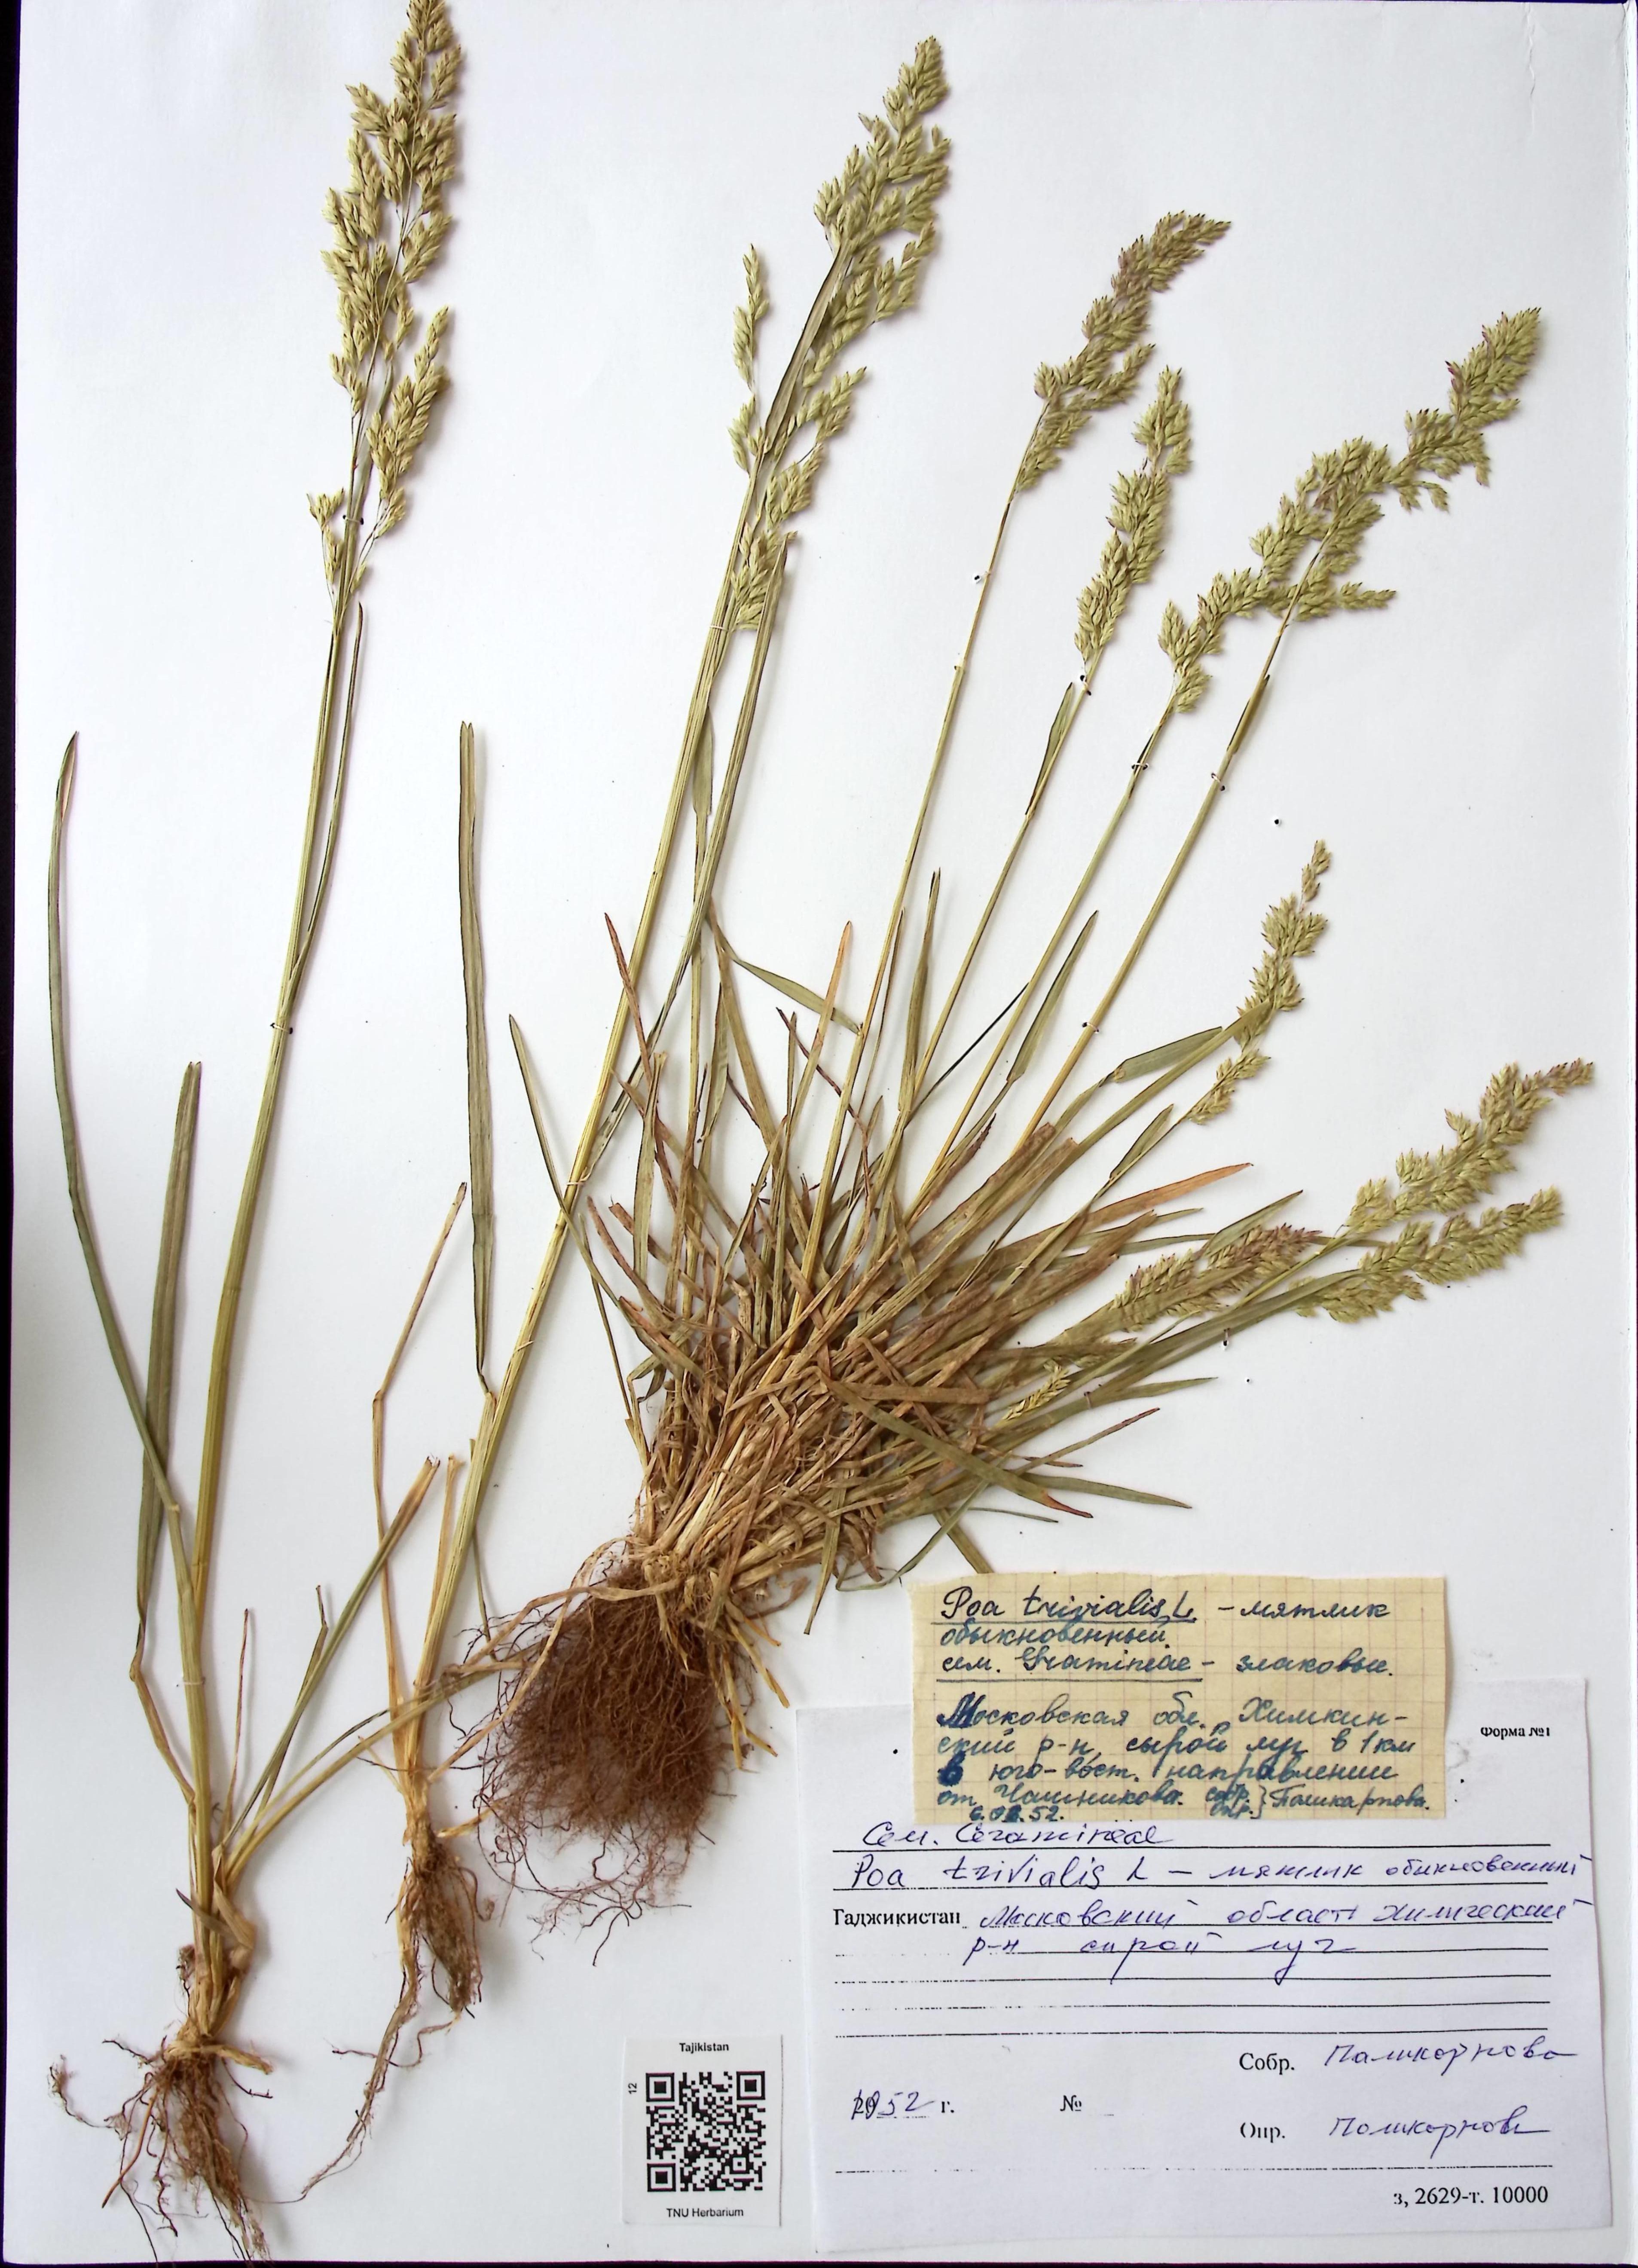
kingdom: Plantae
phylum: Tracheophyta
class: Liliopsida
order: Poales
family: Poaceae
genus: Poa
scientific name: Poa trivialis
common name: Rough bluegrass
